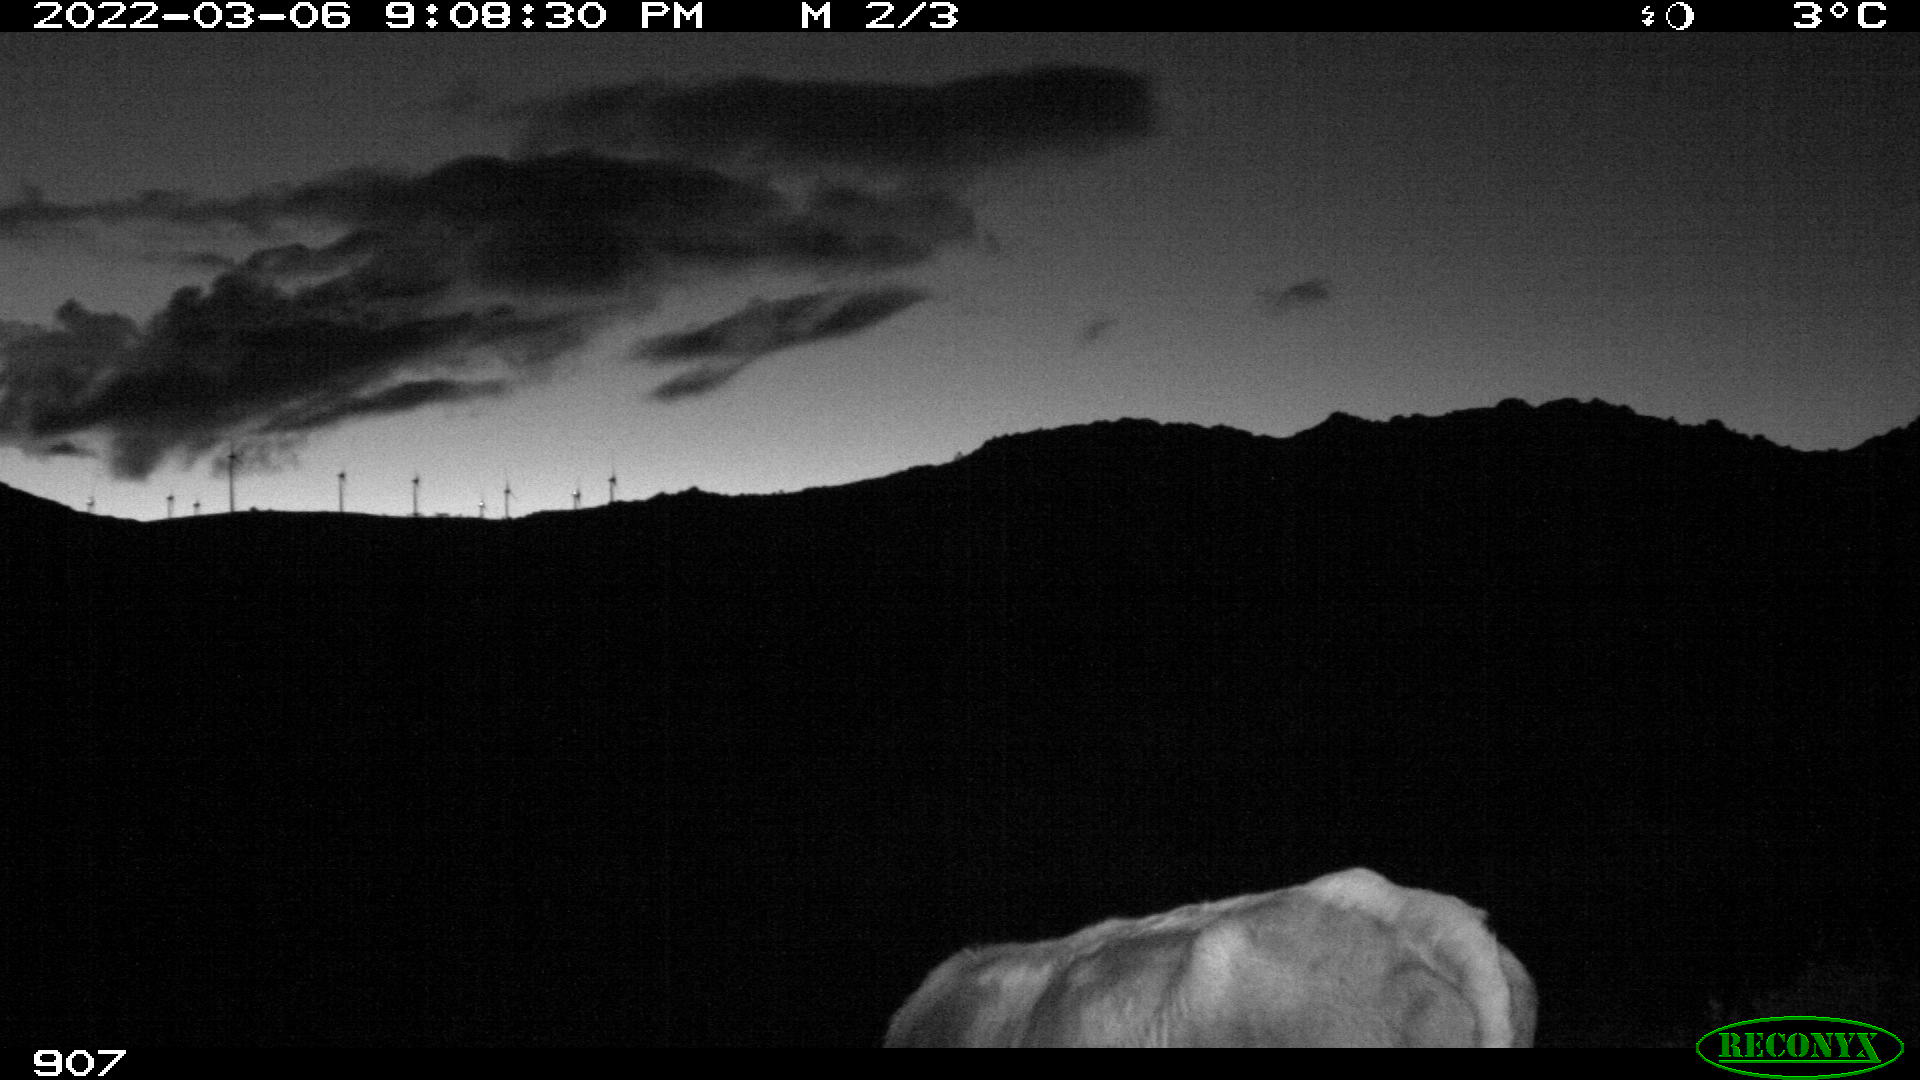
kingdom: Animalia
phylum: Chordata
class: Mammalia
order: Artiodactyla
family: Bovidae
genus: Bos
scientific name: Bos taurus
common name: Domesticated cattle
